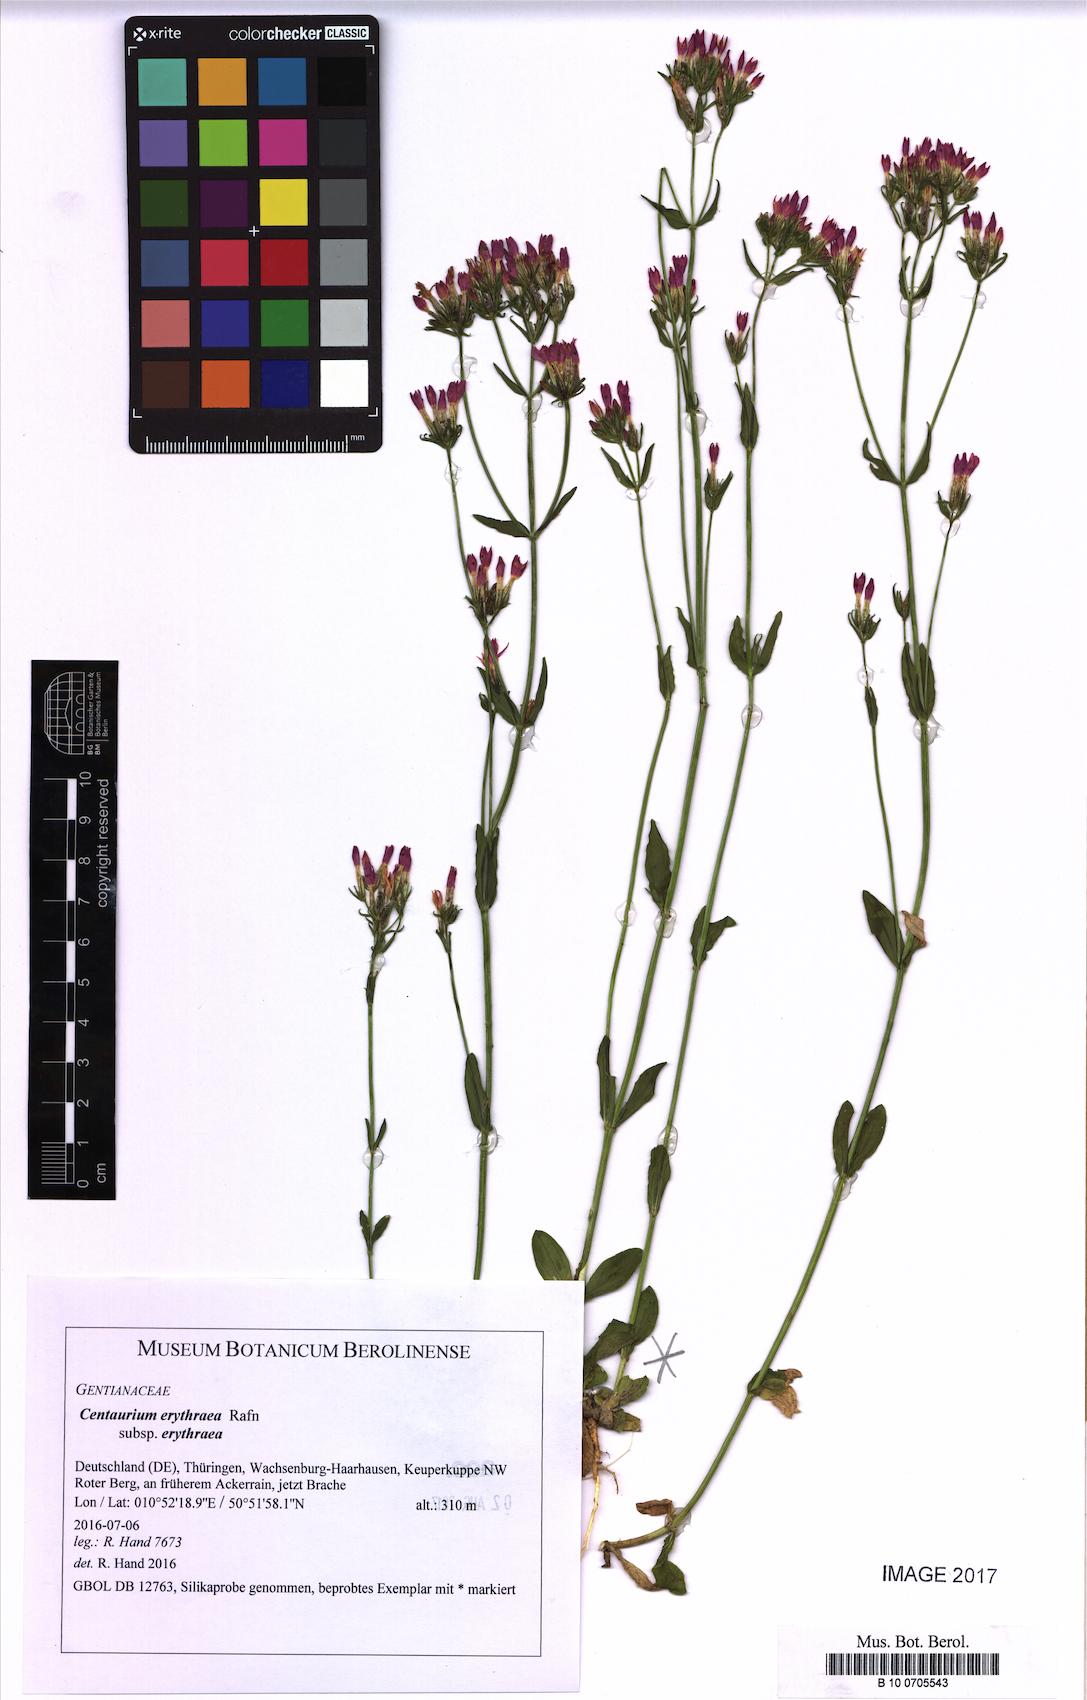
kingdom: Plantae
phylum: Tracheophyta
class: Magnoliopsida
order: Gentianales
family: Gentianaceae
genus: Centaurium
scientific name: Centaurium erythraea
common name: Common centaury
